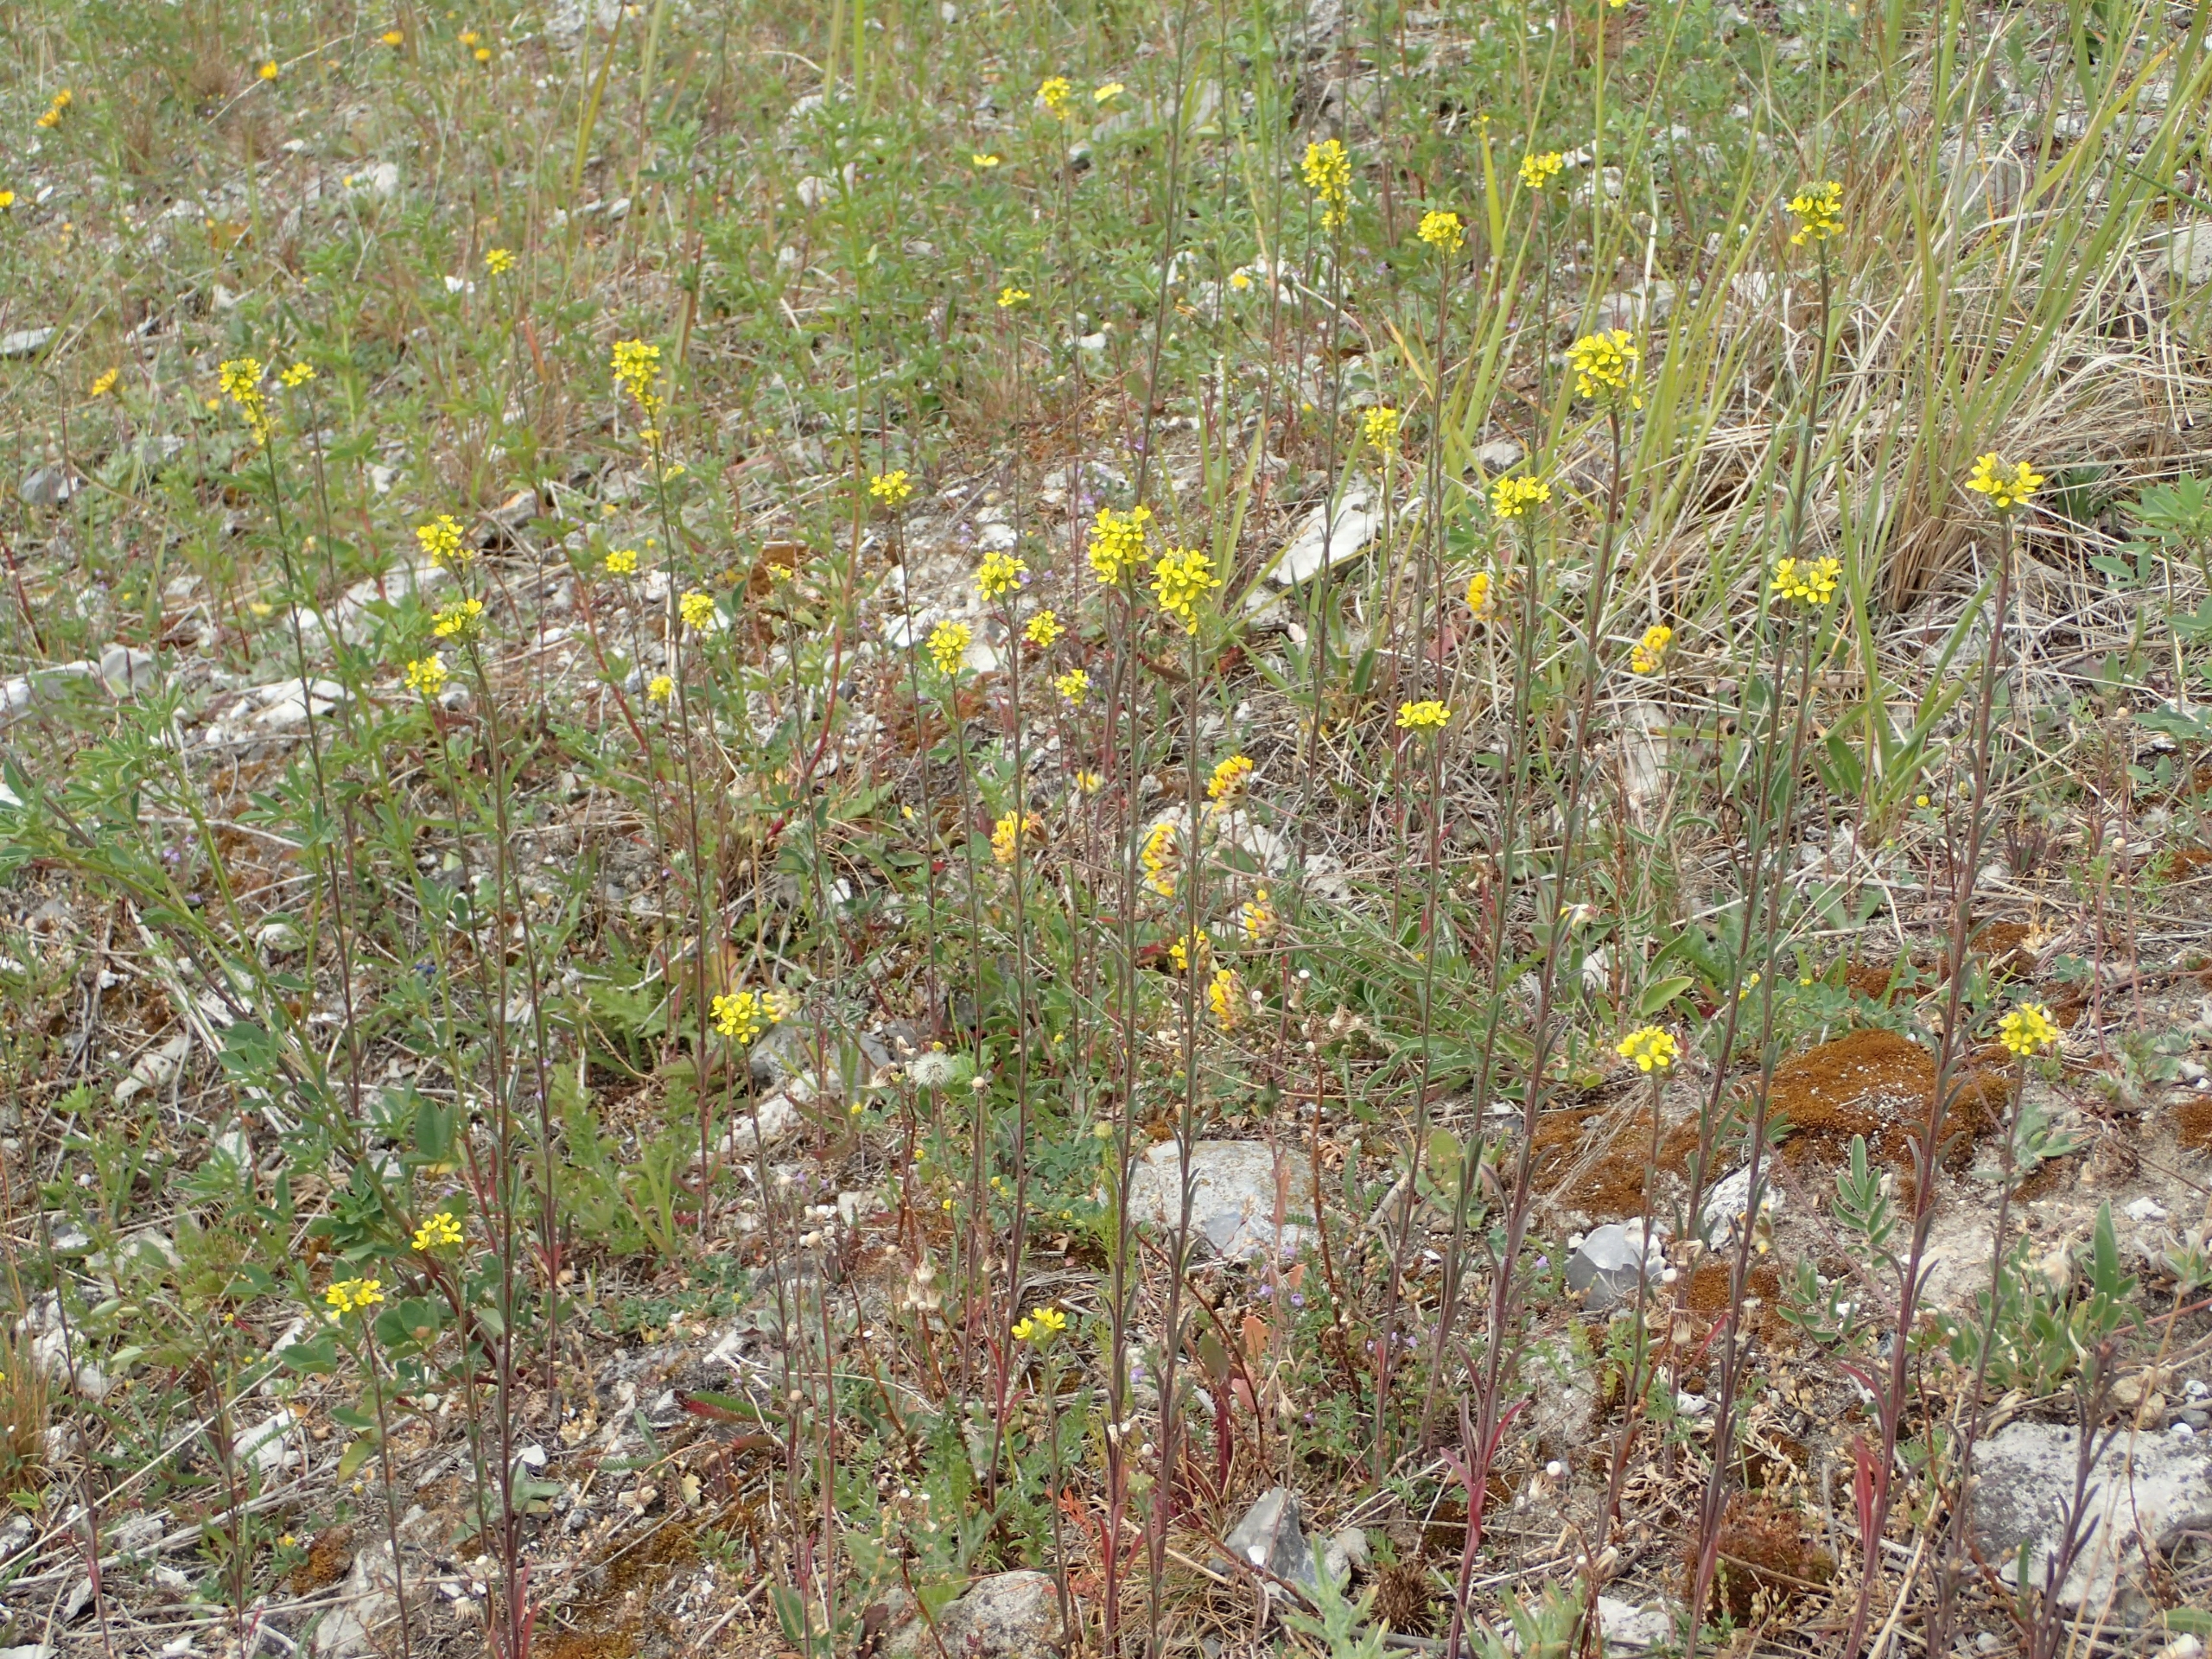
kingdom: Plantae
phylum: Tracheophyta
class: Magnoliopsida
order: Brassicales
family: Brassicaceae
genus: Erysimum
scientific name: Erysimum marschallianum
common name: Hård hjørneklap
